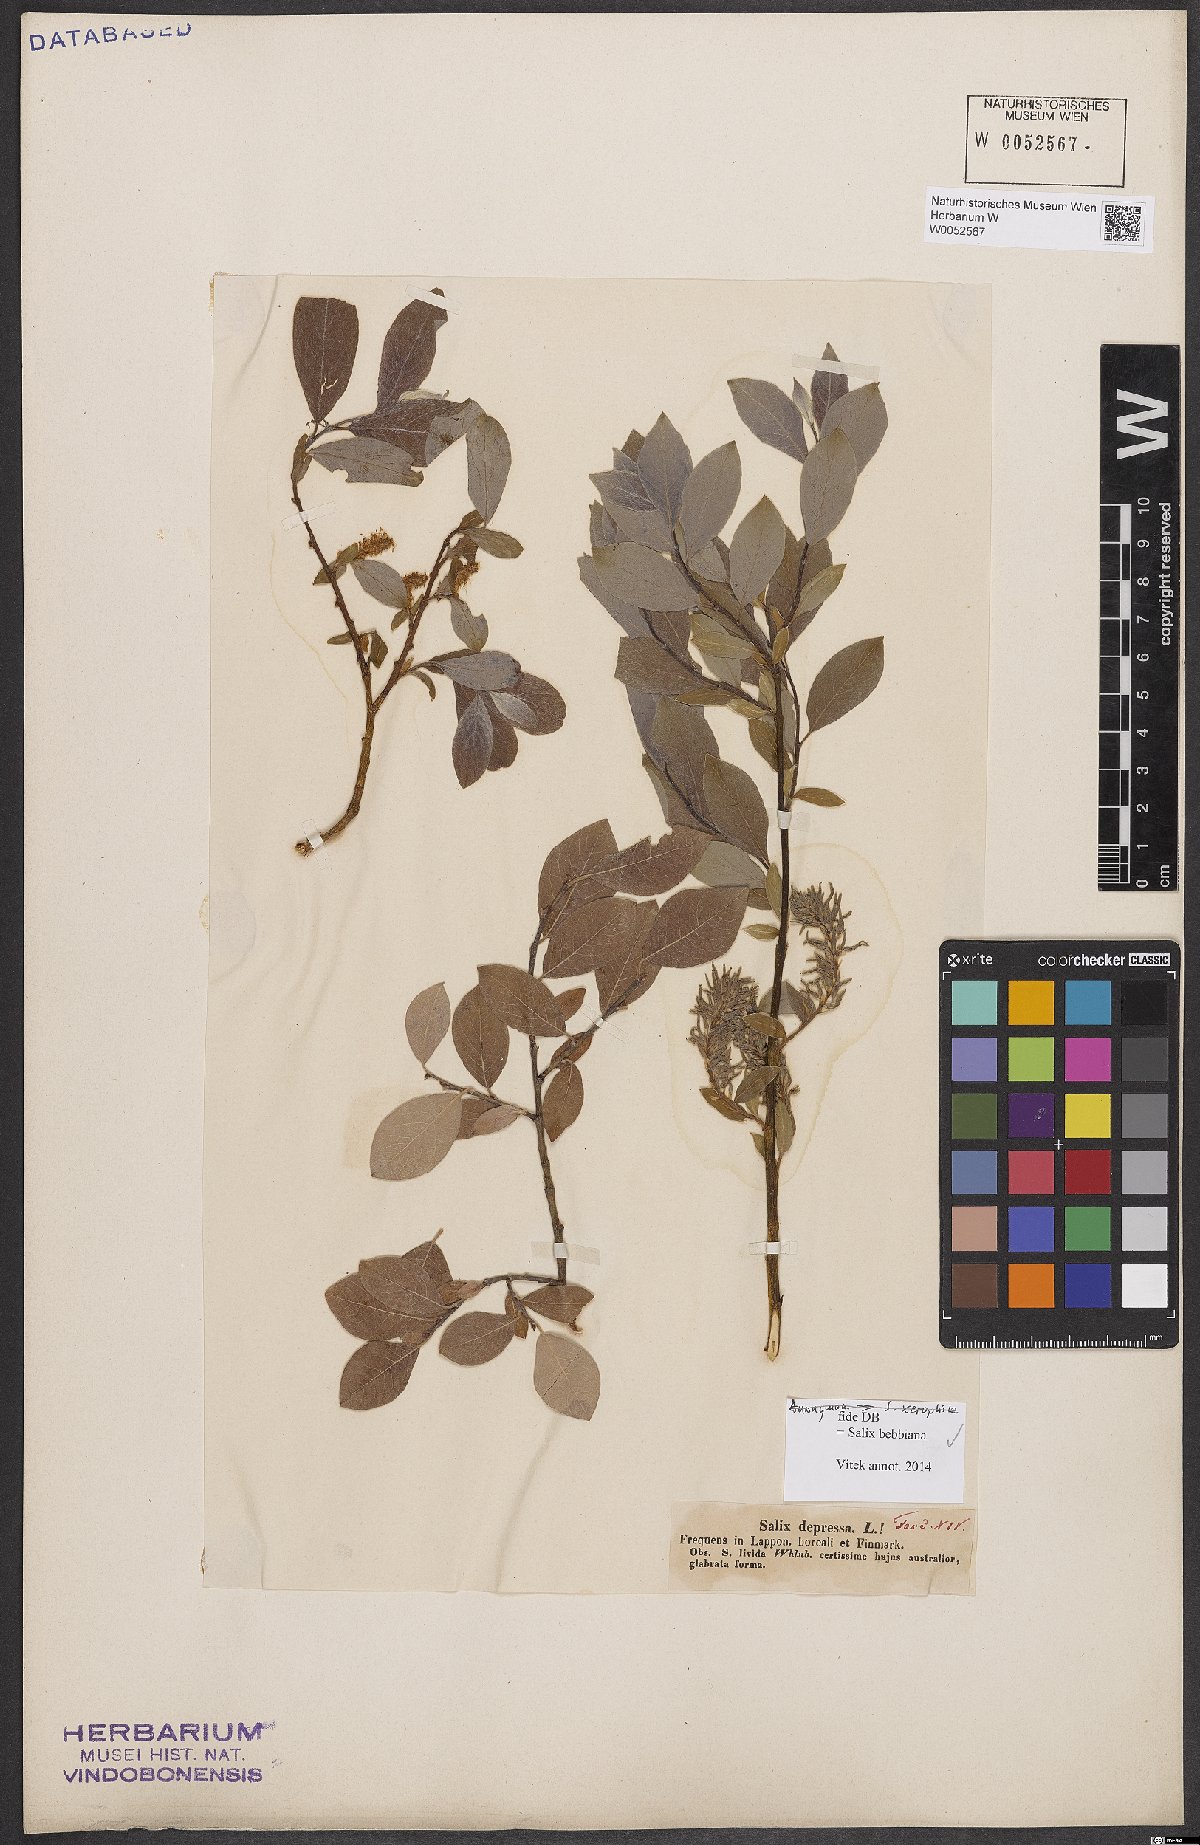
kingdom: Plantae
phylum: Tracheophyta
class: Magnoliopsida
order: Malpighiales
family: Salicaceae
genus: Salix
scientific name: Salix bebbiana
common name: Bebb's willow
